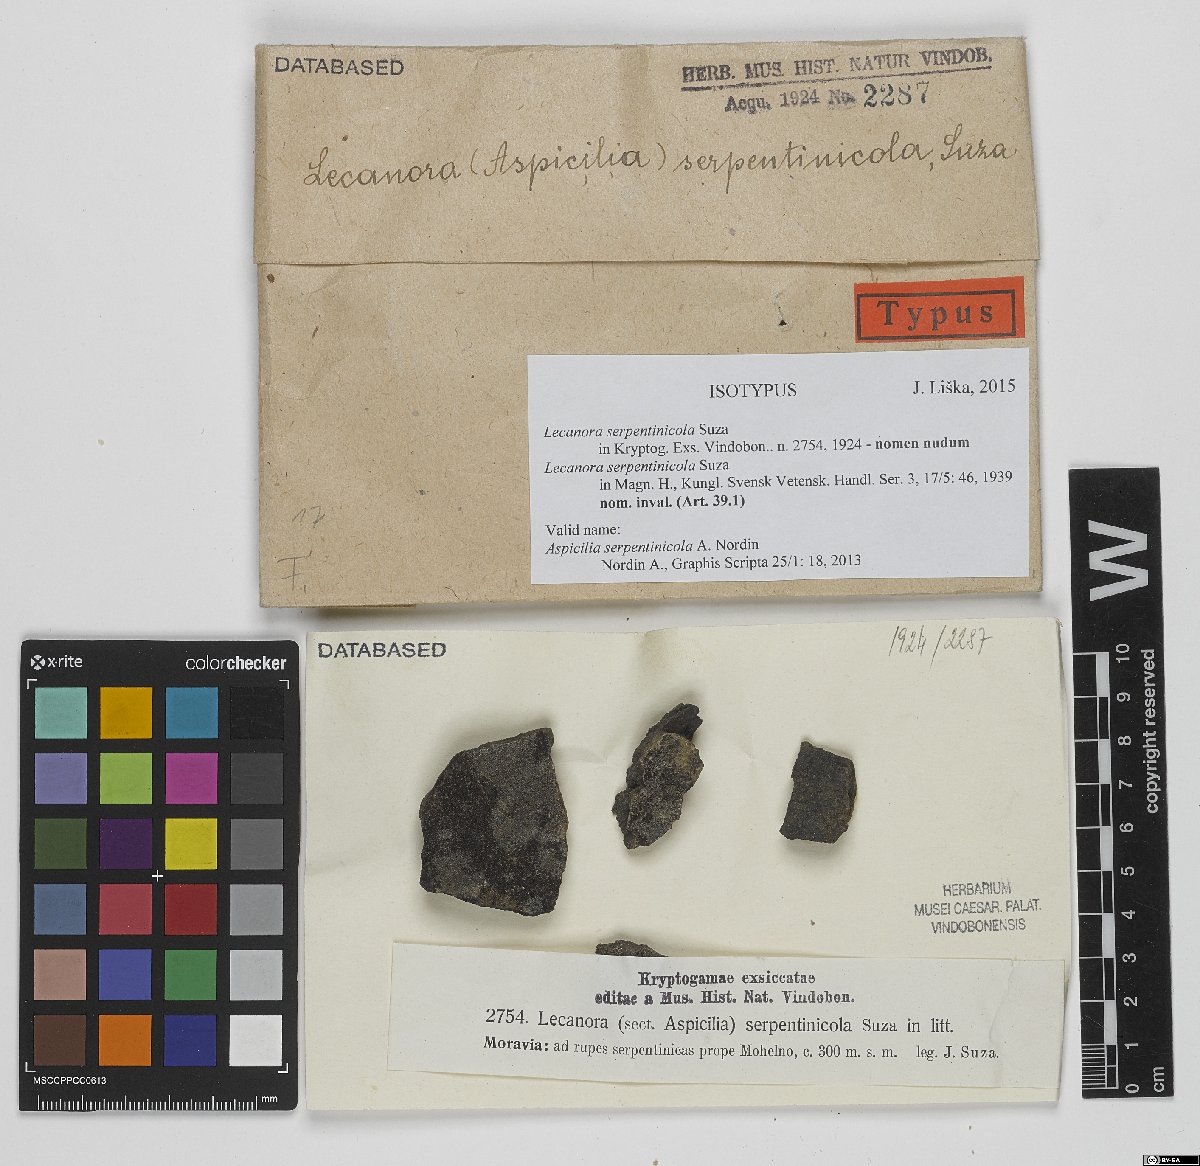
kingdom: Fungi
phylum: Ascomycota
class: Lecanoromycetes
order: Pertusariales
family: Megasporaceae
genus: Aspicilia
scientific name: Aspicilia serpentinicola
